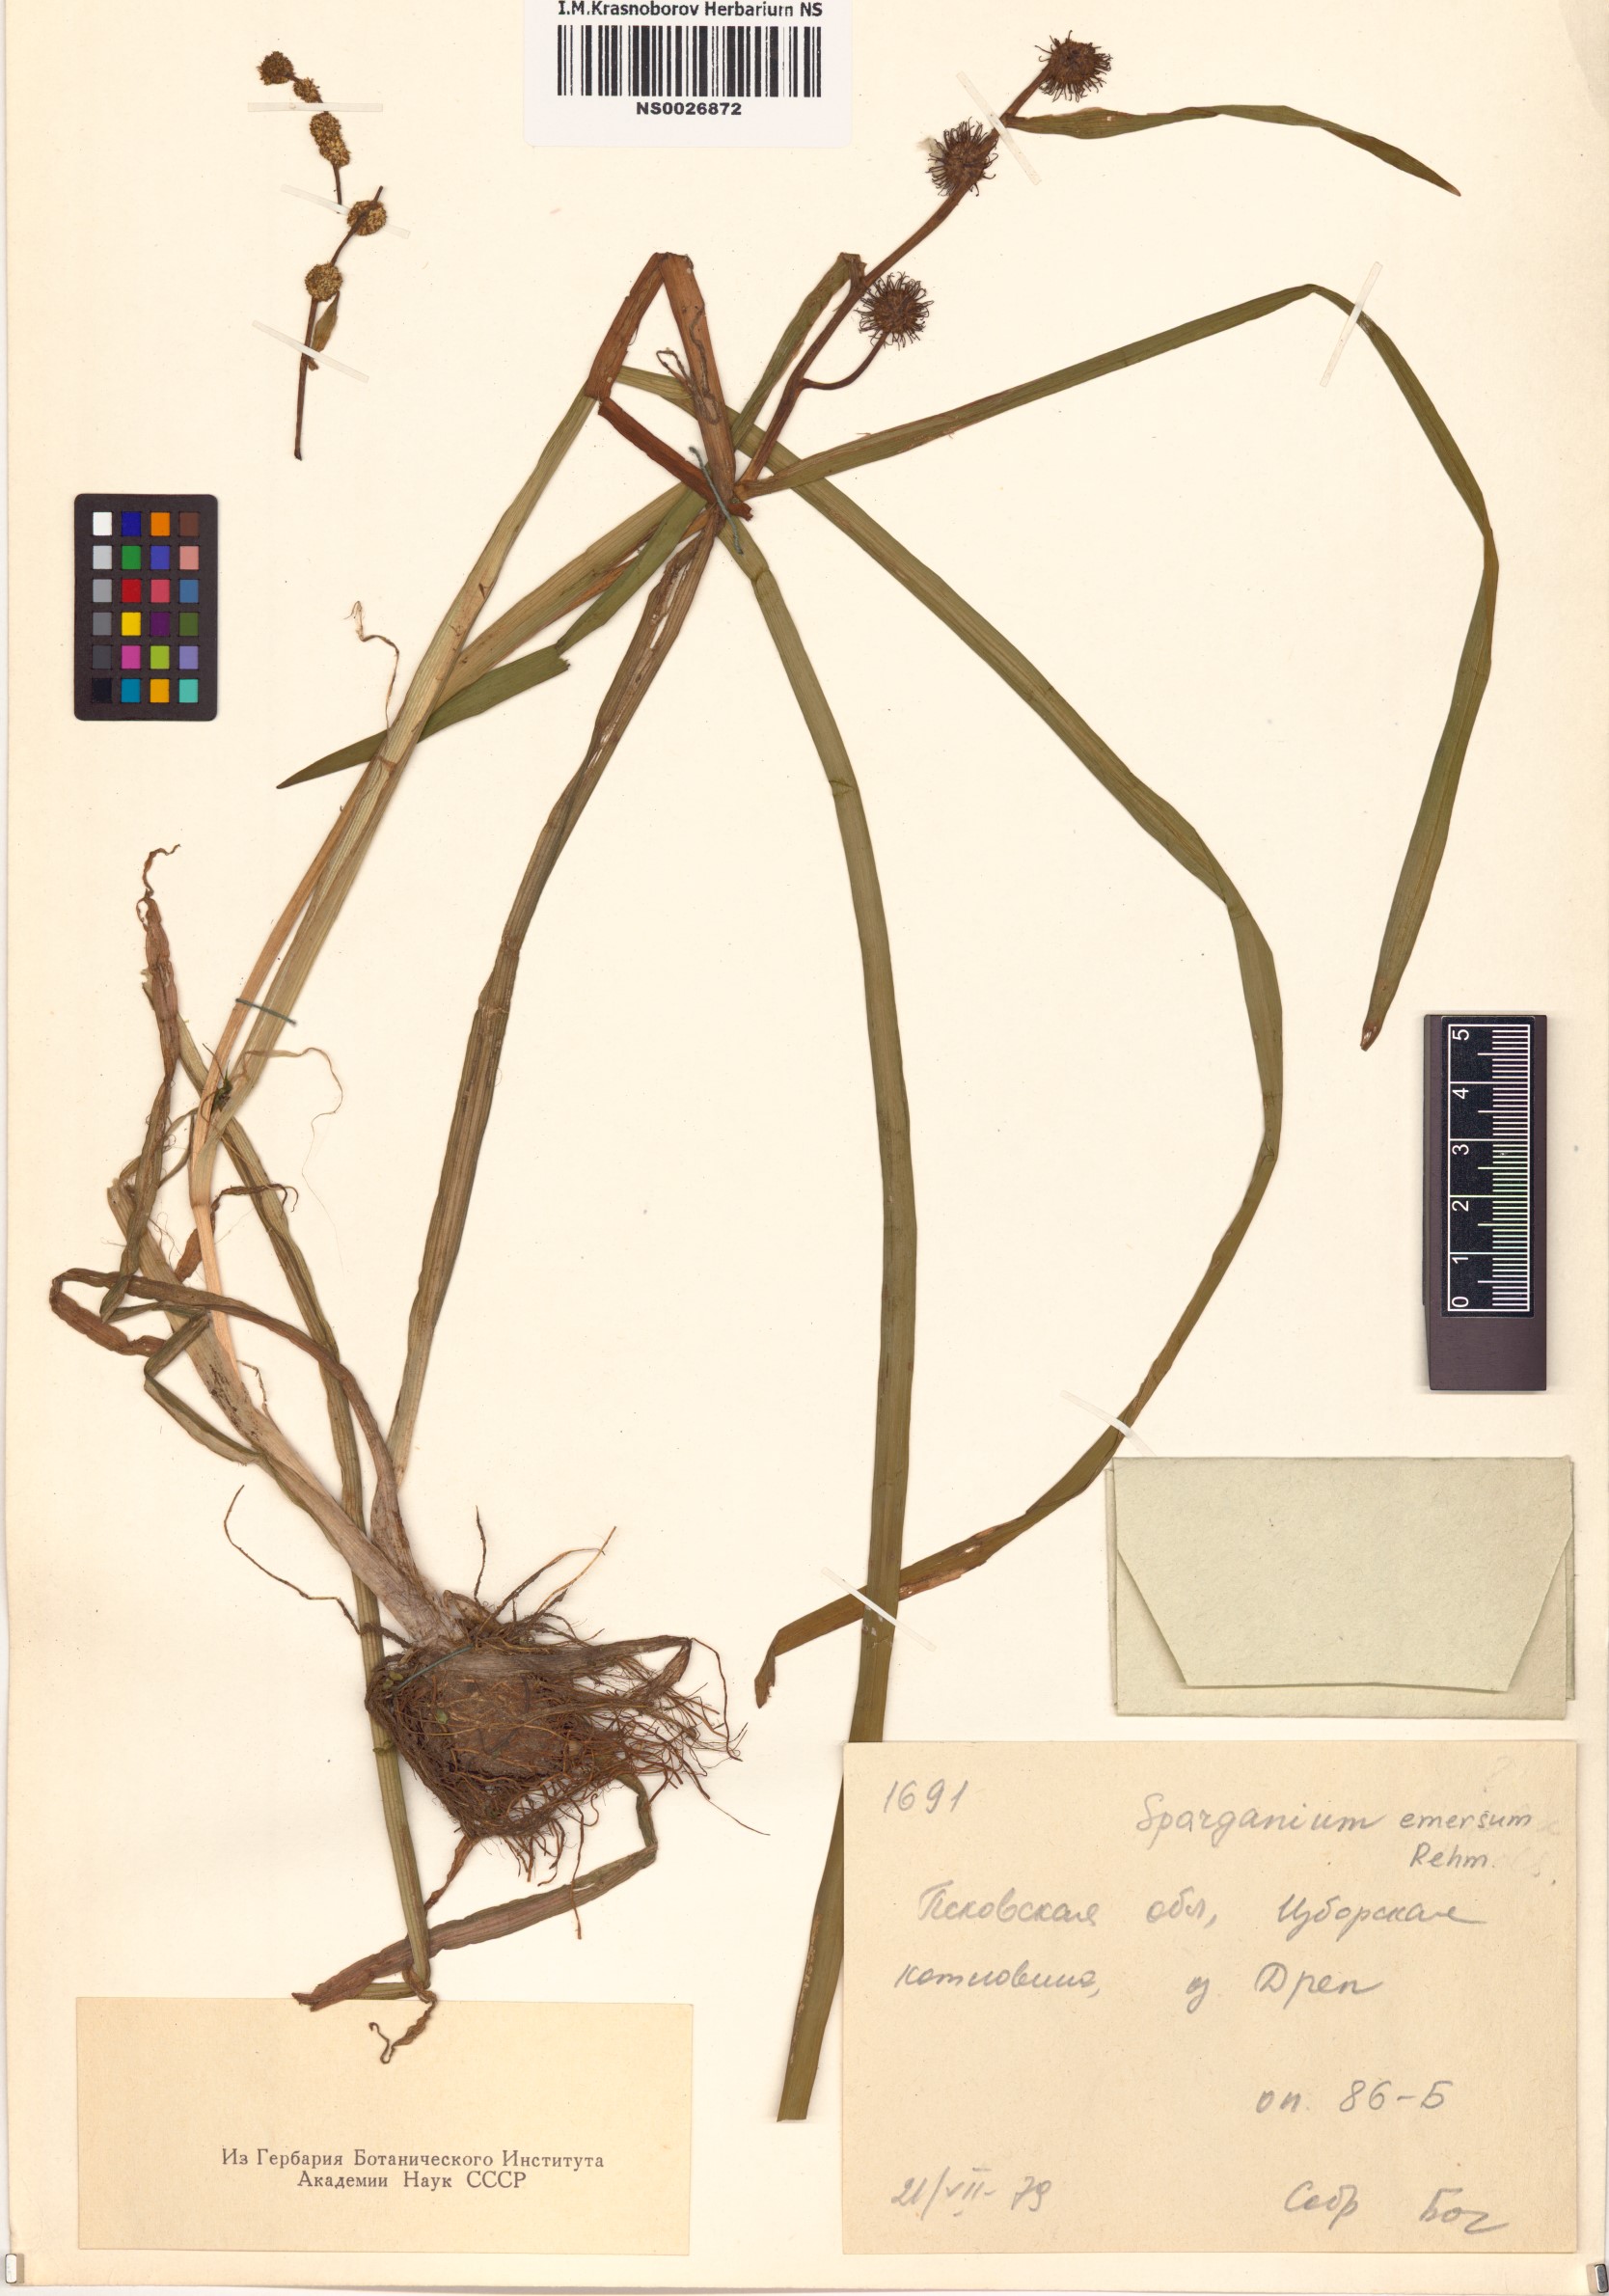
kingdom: Plantae
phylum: Tracheophyta
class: Liliopsida
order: Poales
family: Typhaceae
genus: Sparganium
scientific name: Sparganium emersum
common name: Unbranched bur-reed
